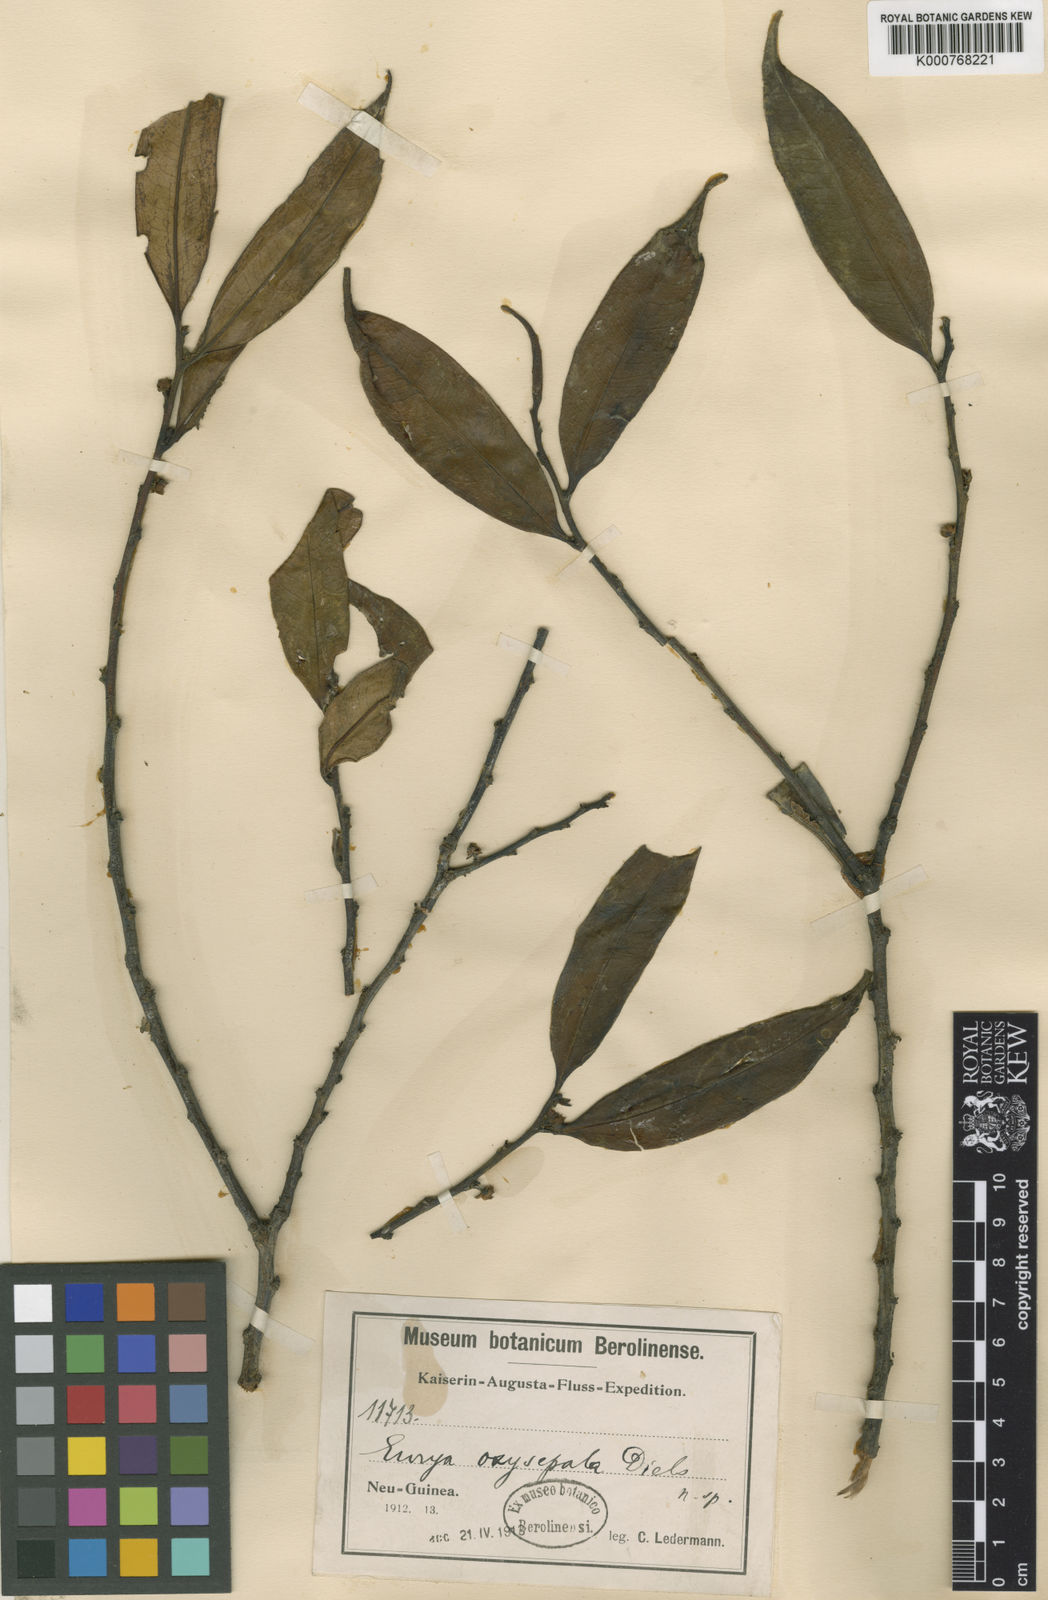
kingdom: Plantae
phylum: Tracheophyta
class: Magnoliopsida
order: Ericales
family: Pentaphylacaceae
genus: Eurya
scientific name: Eurya oxysepala
